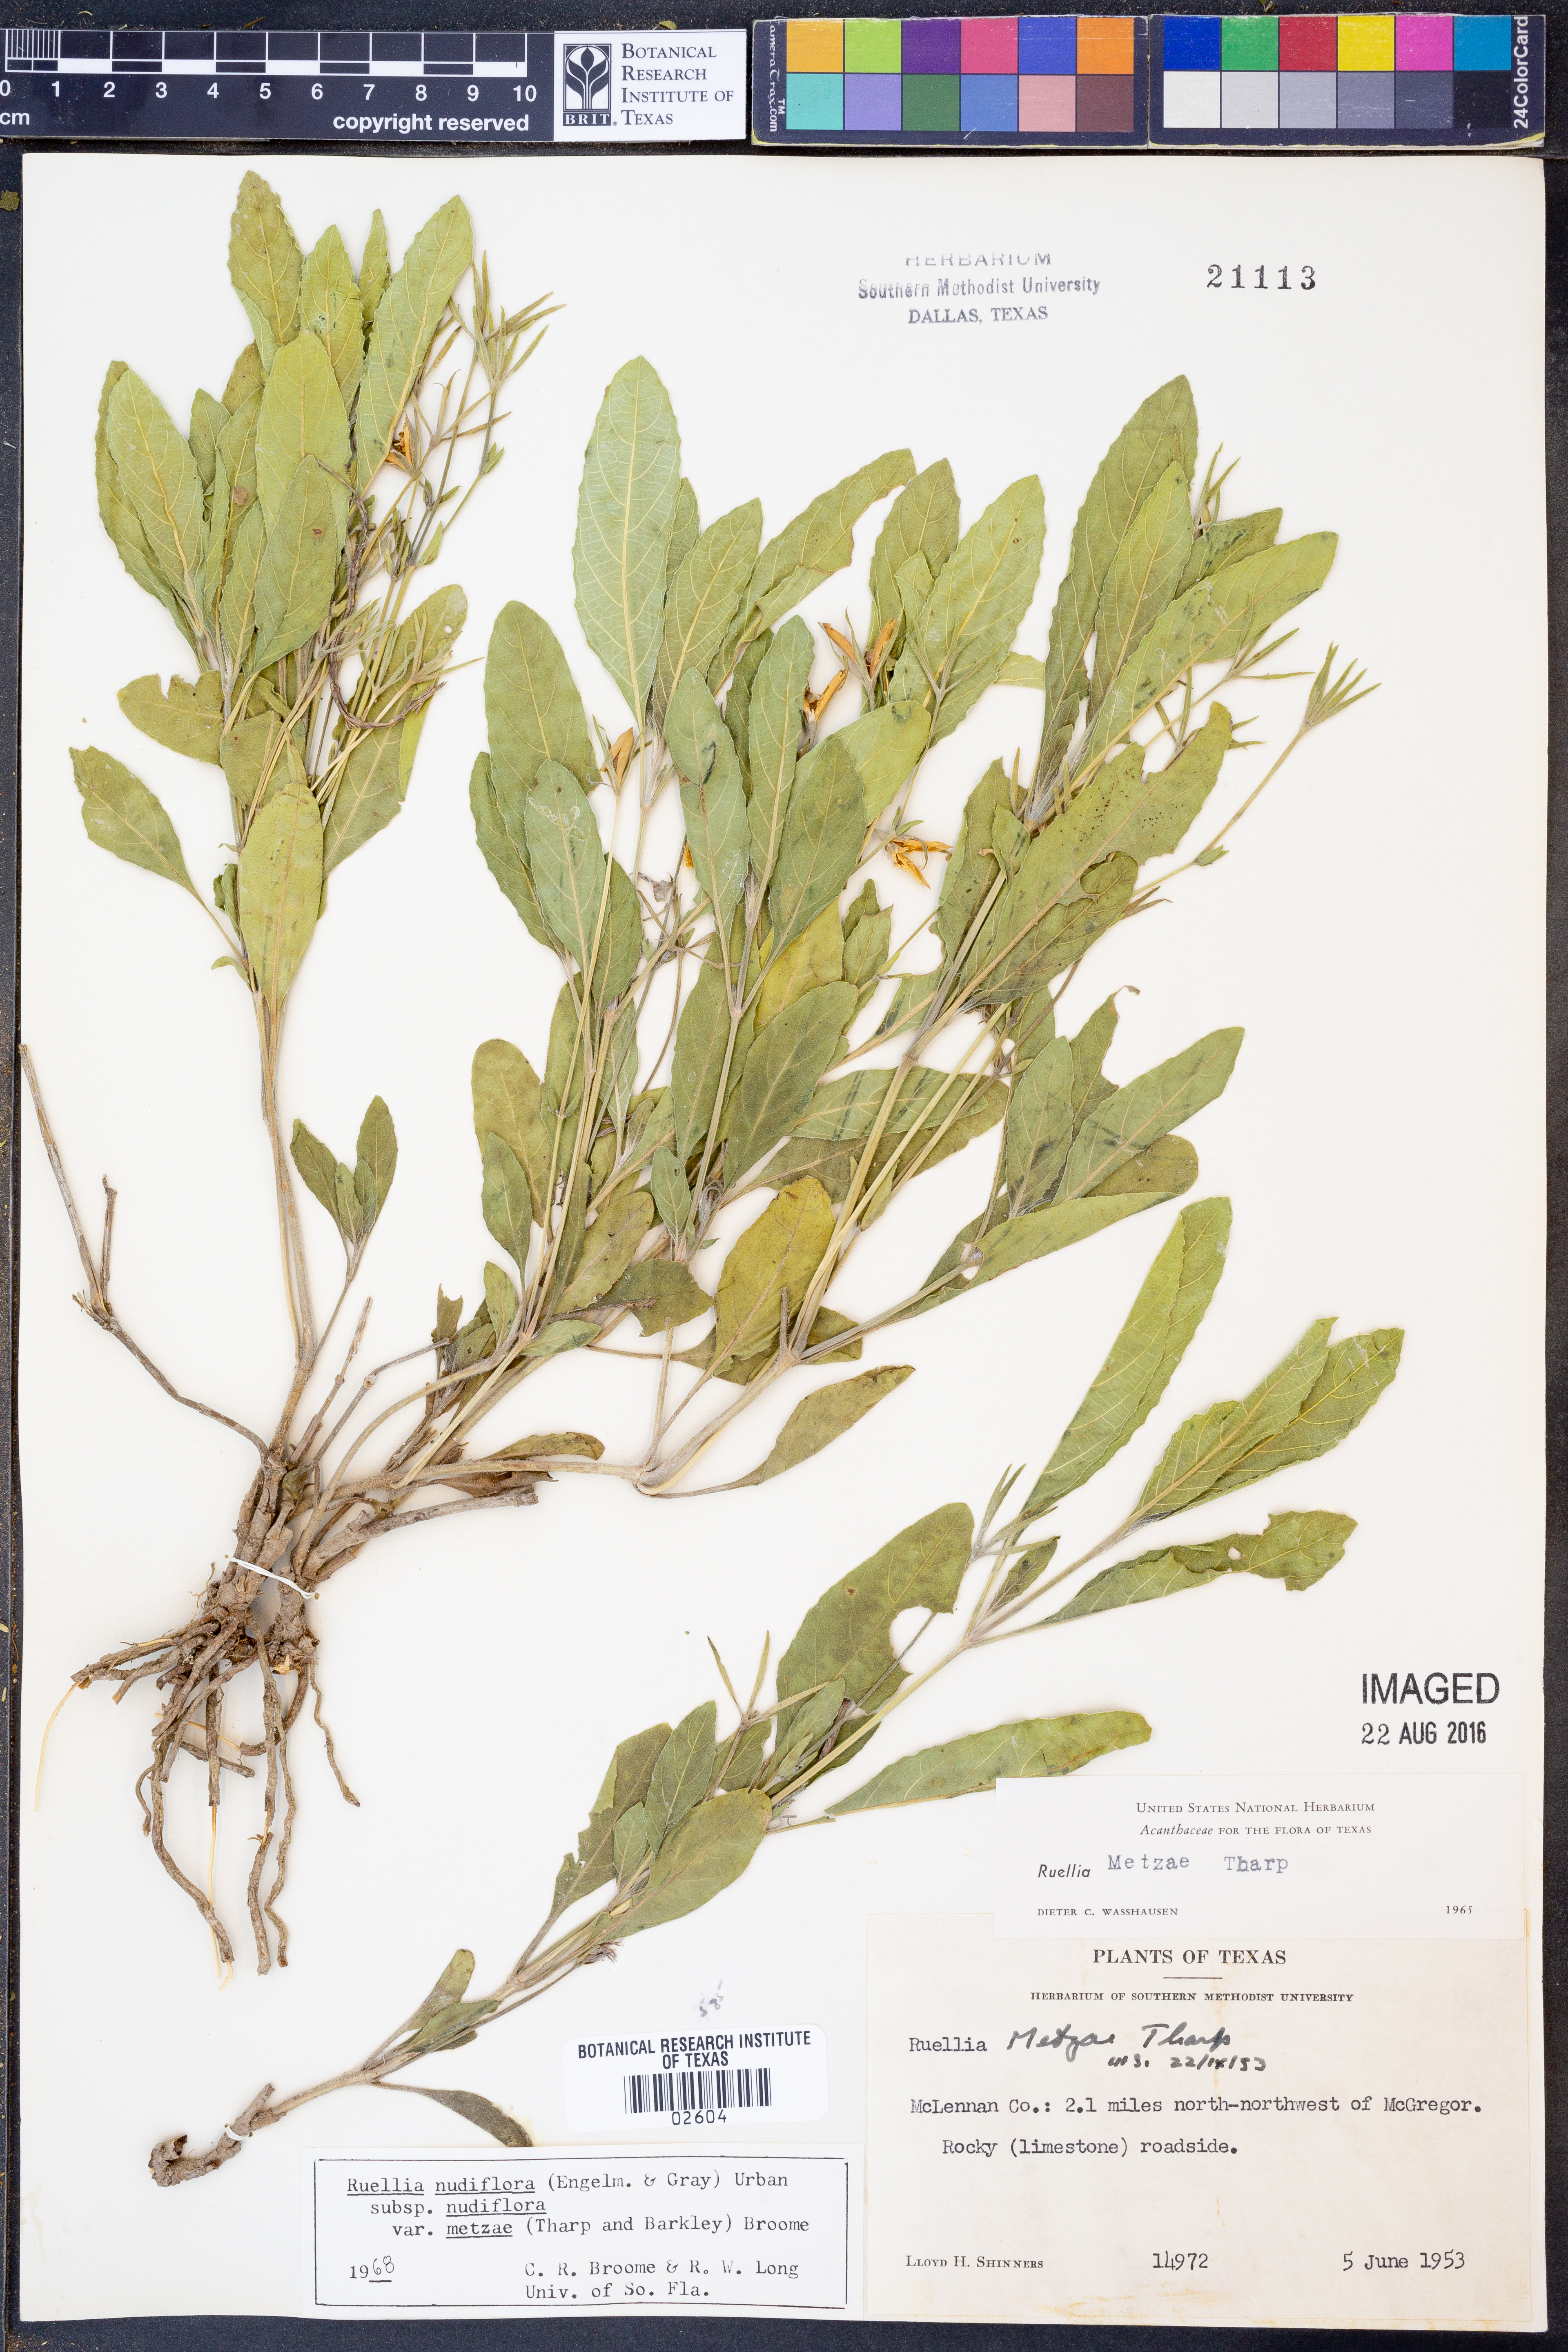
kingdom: Plantae
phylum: Tracheophyta
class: Magnoliopsida
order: Lamiales
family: Acanthaceae
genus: Ruellia
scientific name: Ruellia ciliatiflora
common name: Hairyflower wild petunia
